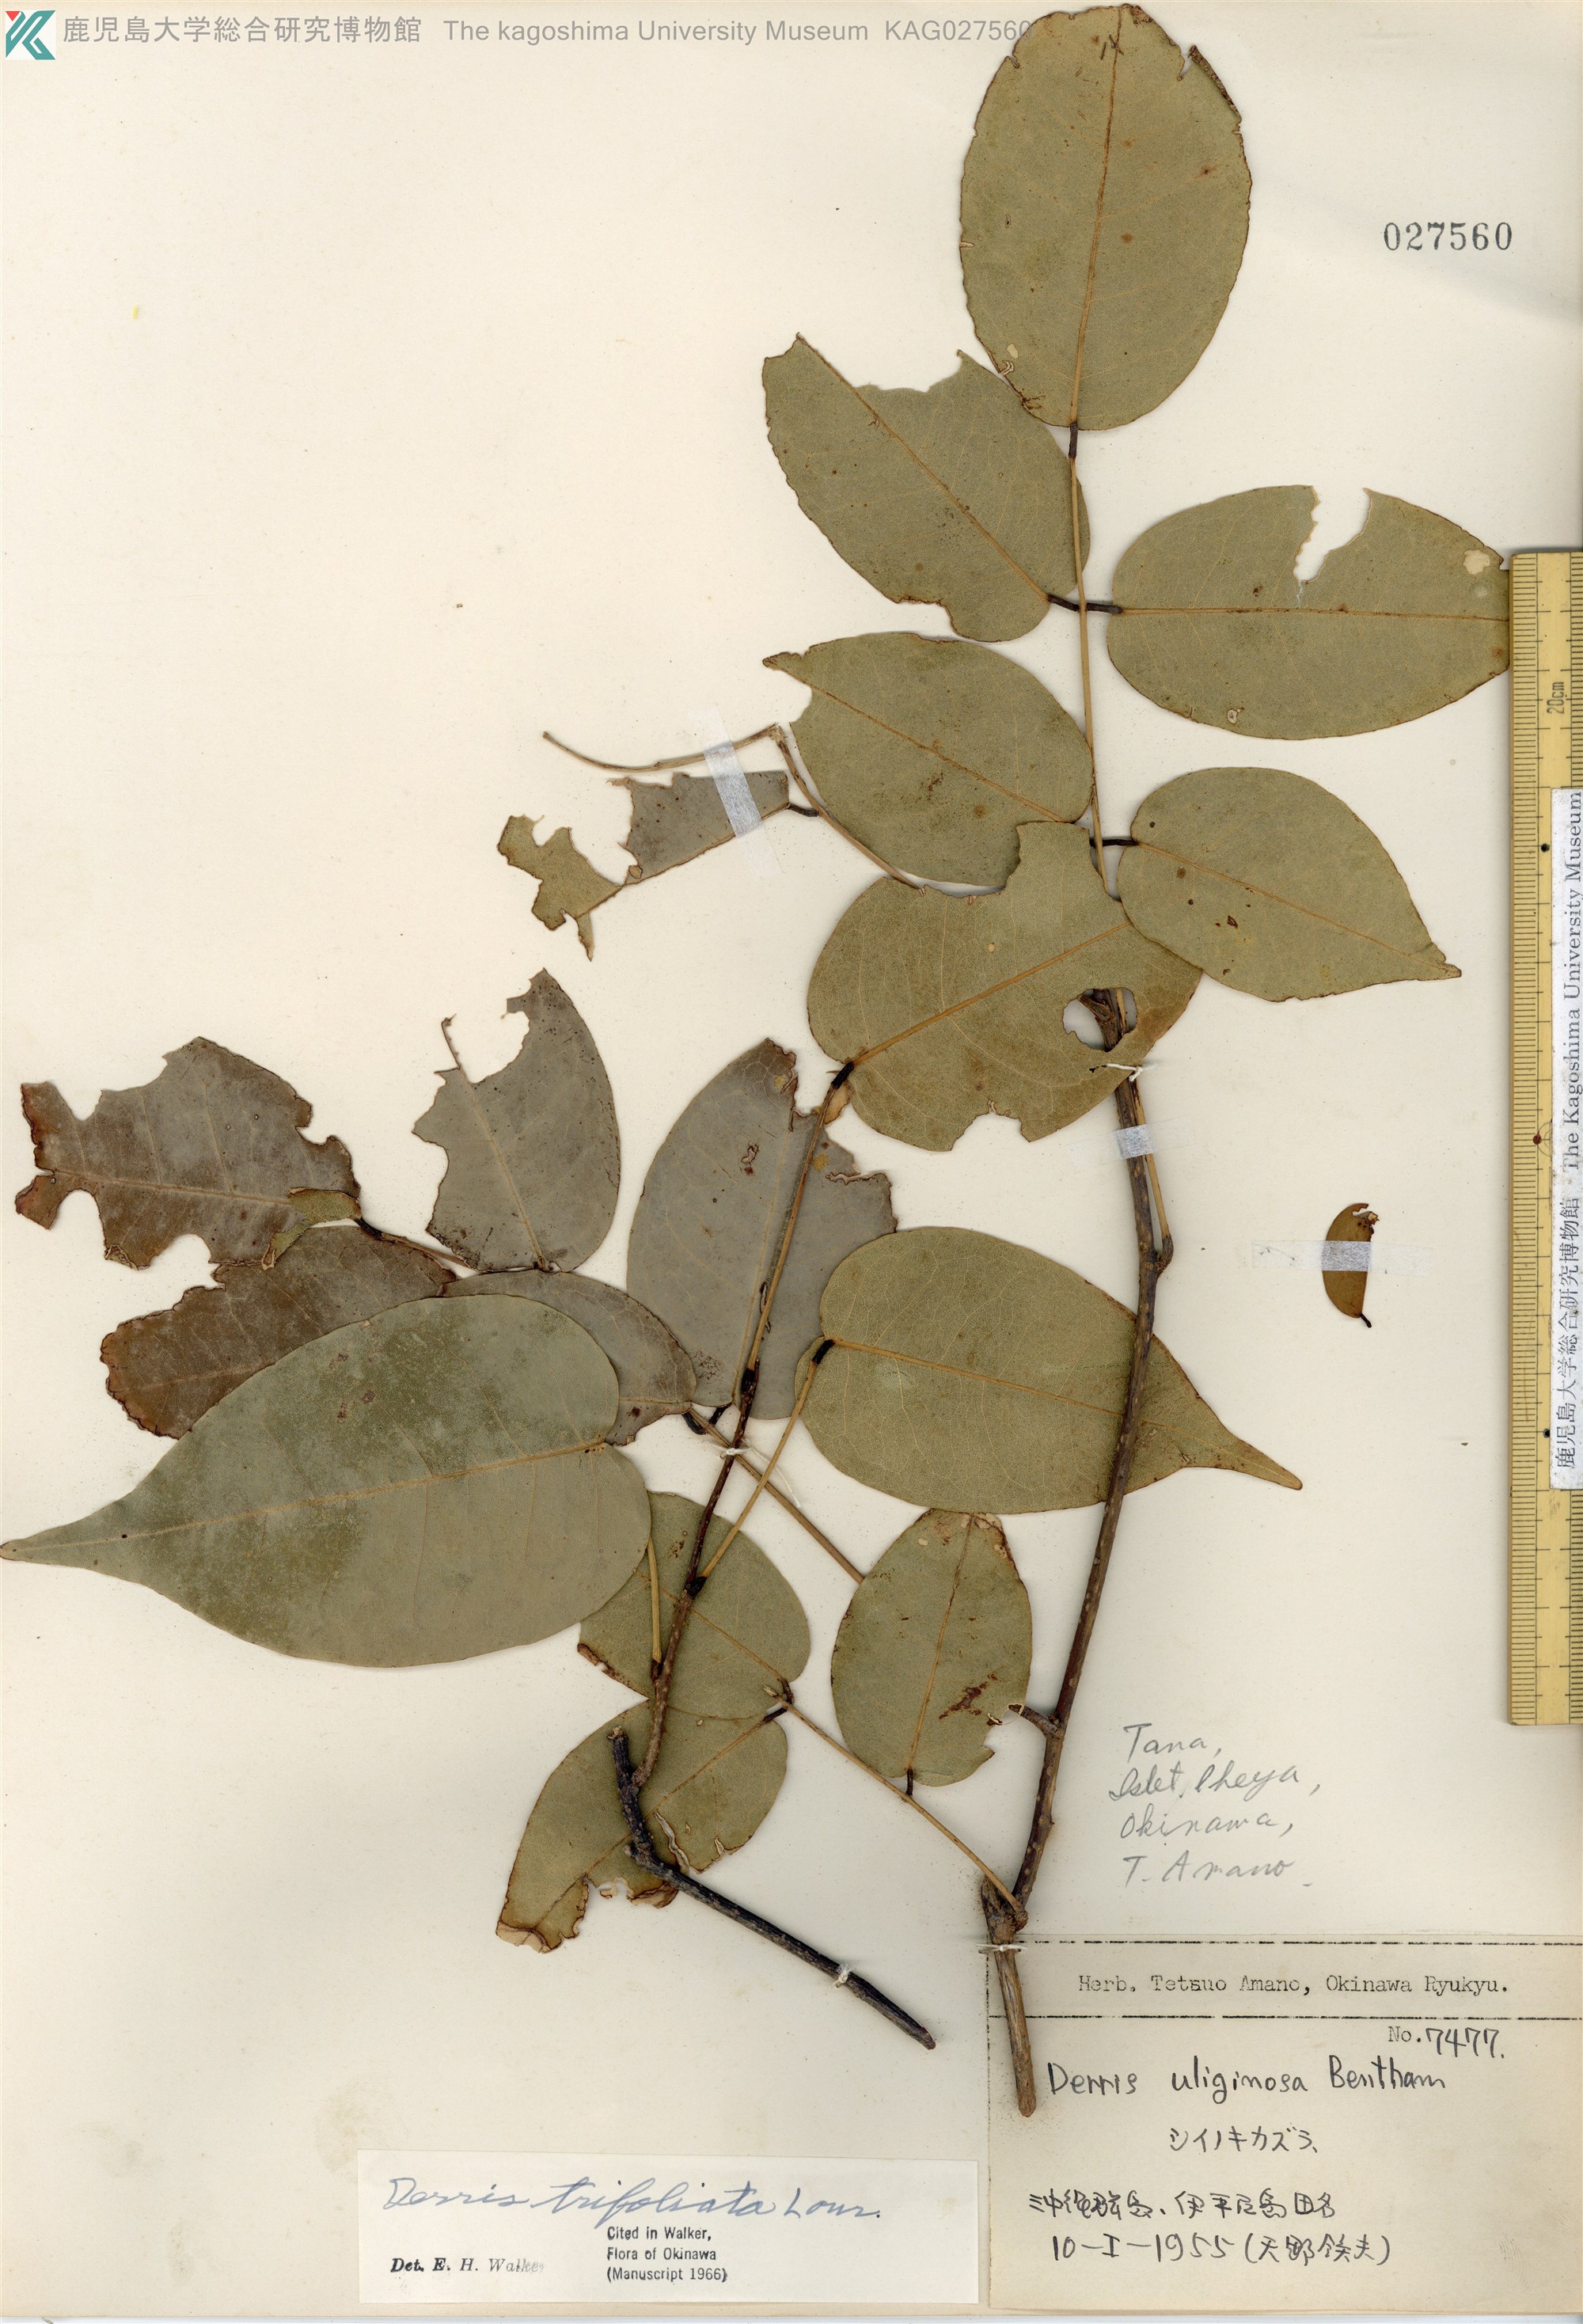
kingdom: Plantae
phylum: Tracheophyta
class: Magnoliopsida
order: Fabales
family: Fabaceae
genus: Derris
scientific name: Derris trifoliata
